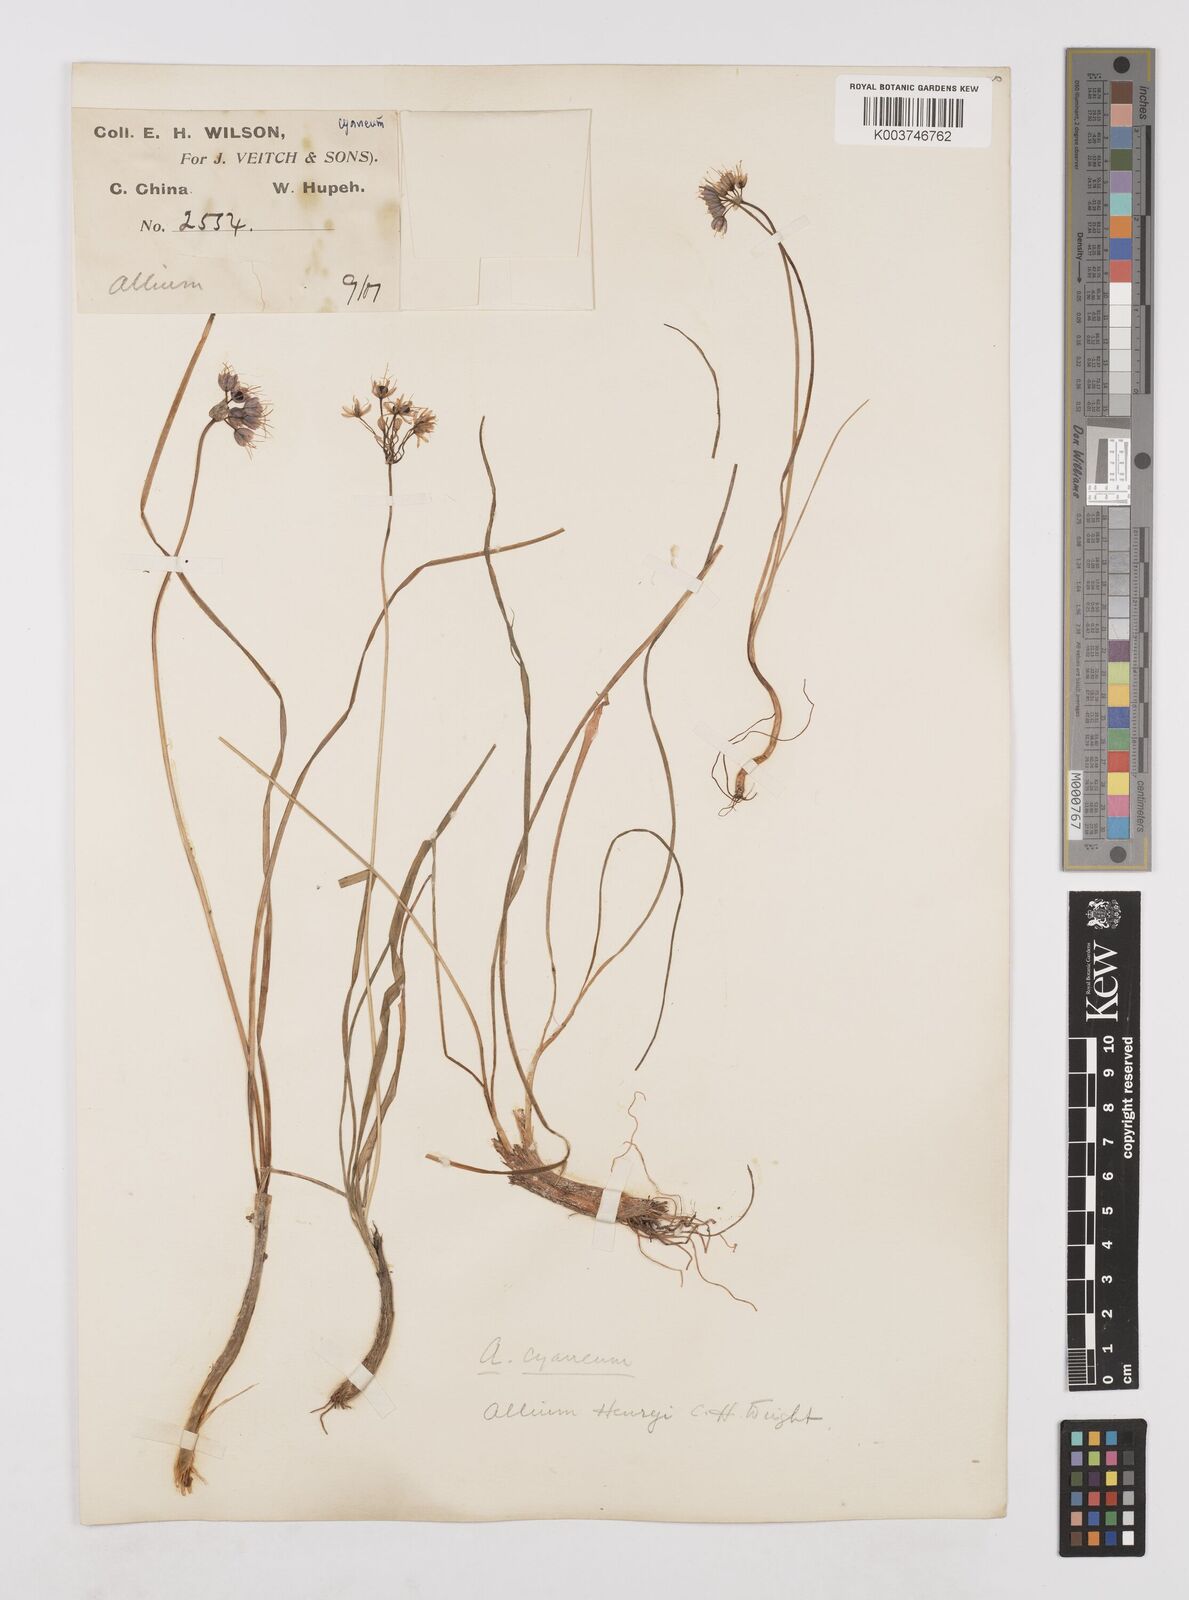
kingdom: Plantae
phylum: Tracheophyta
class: Liliopsida
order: Asparagales
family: Amaryllidaceae
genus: Allium
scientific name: Allium henryi
